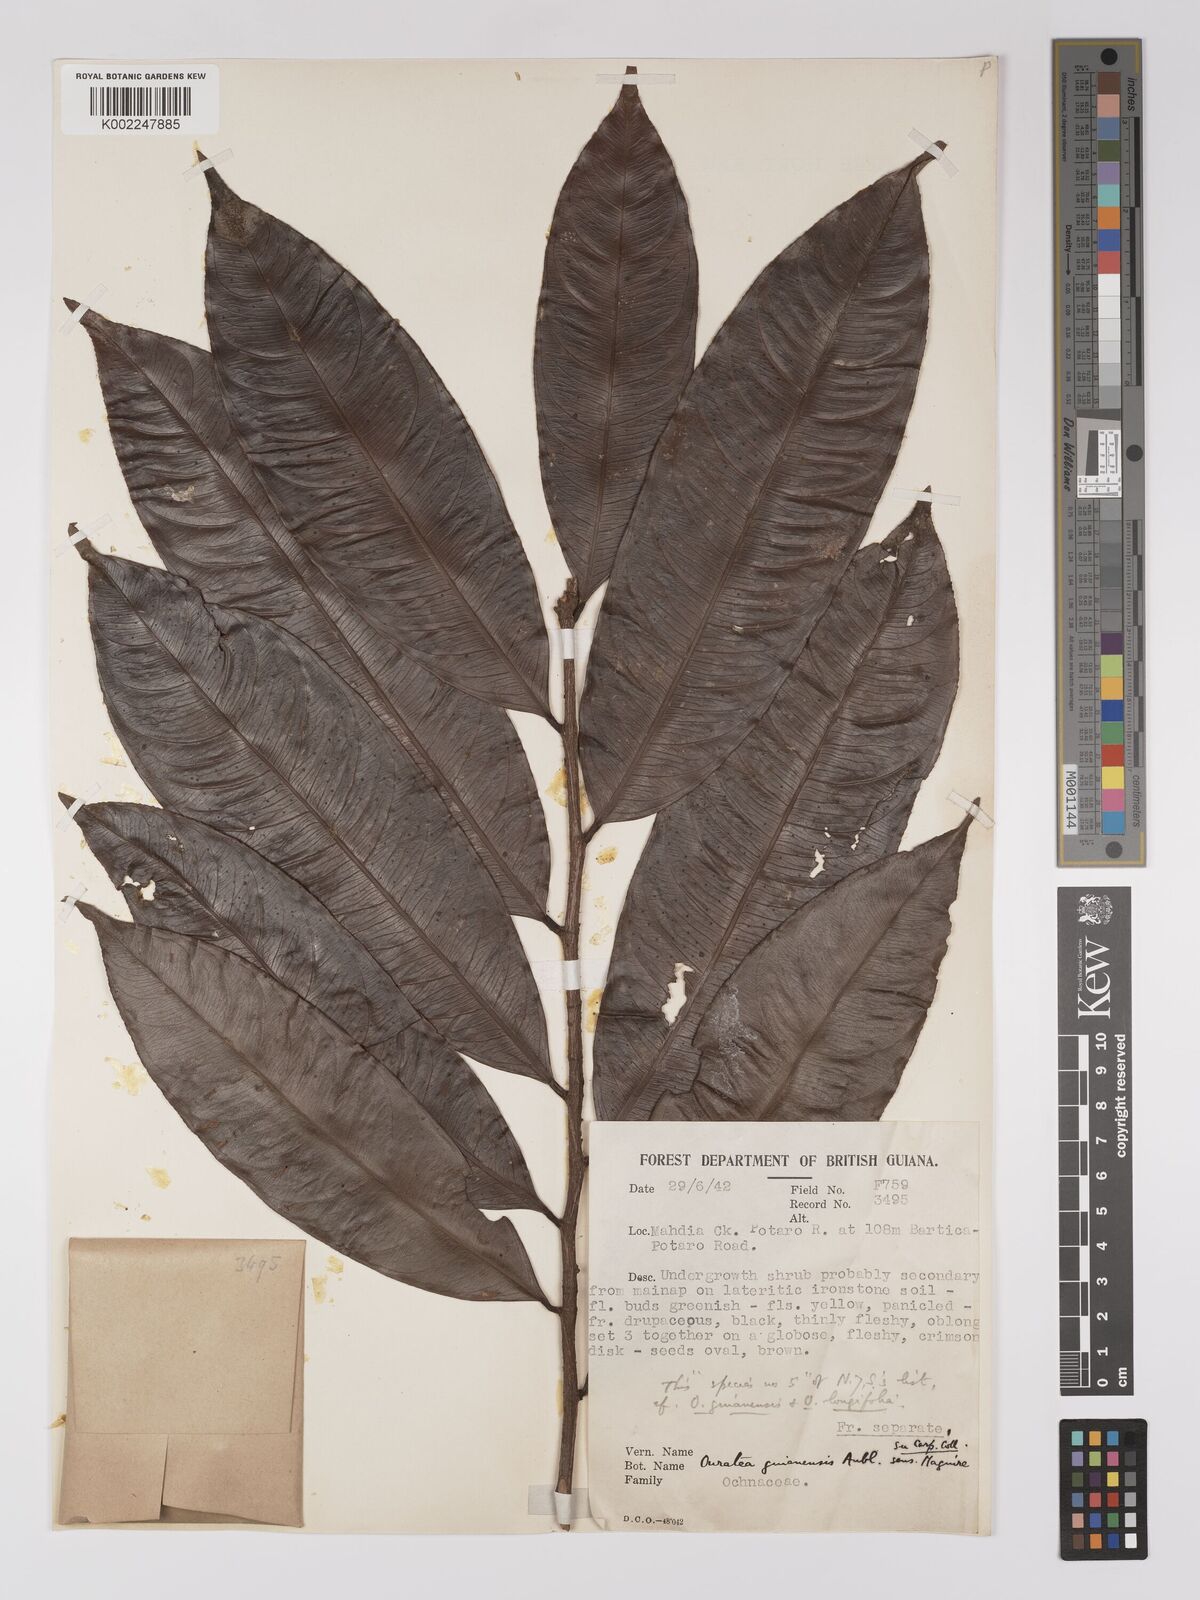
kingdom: Plantae
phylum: Tracheophyta
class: Magnoliopsida
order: Malpighiales
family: Ochnaceae
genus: Ouratea
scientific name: Ouratea longifolia
